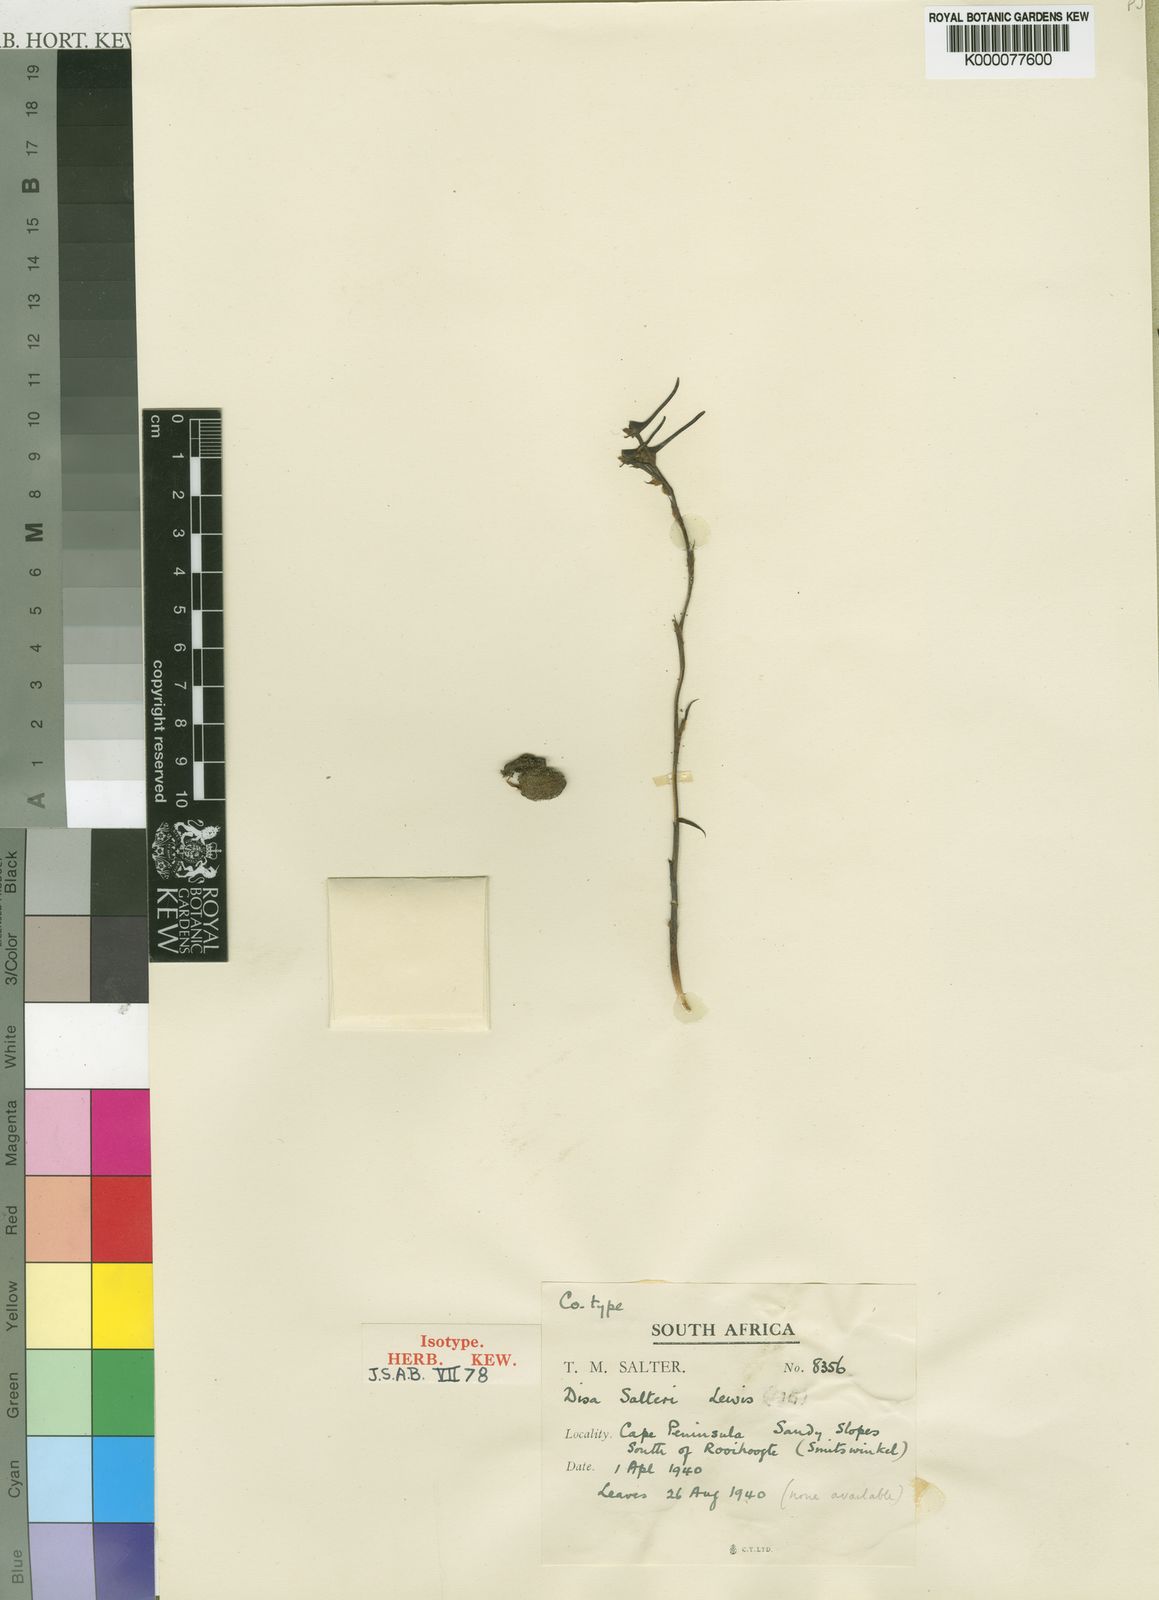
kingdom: Plantae
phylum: Tracheophyta
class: Liliopsida
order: Asparagales
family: Orchidaceae
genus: Disa
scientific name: Disa salteri
